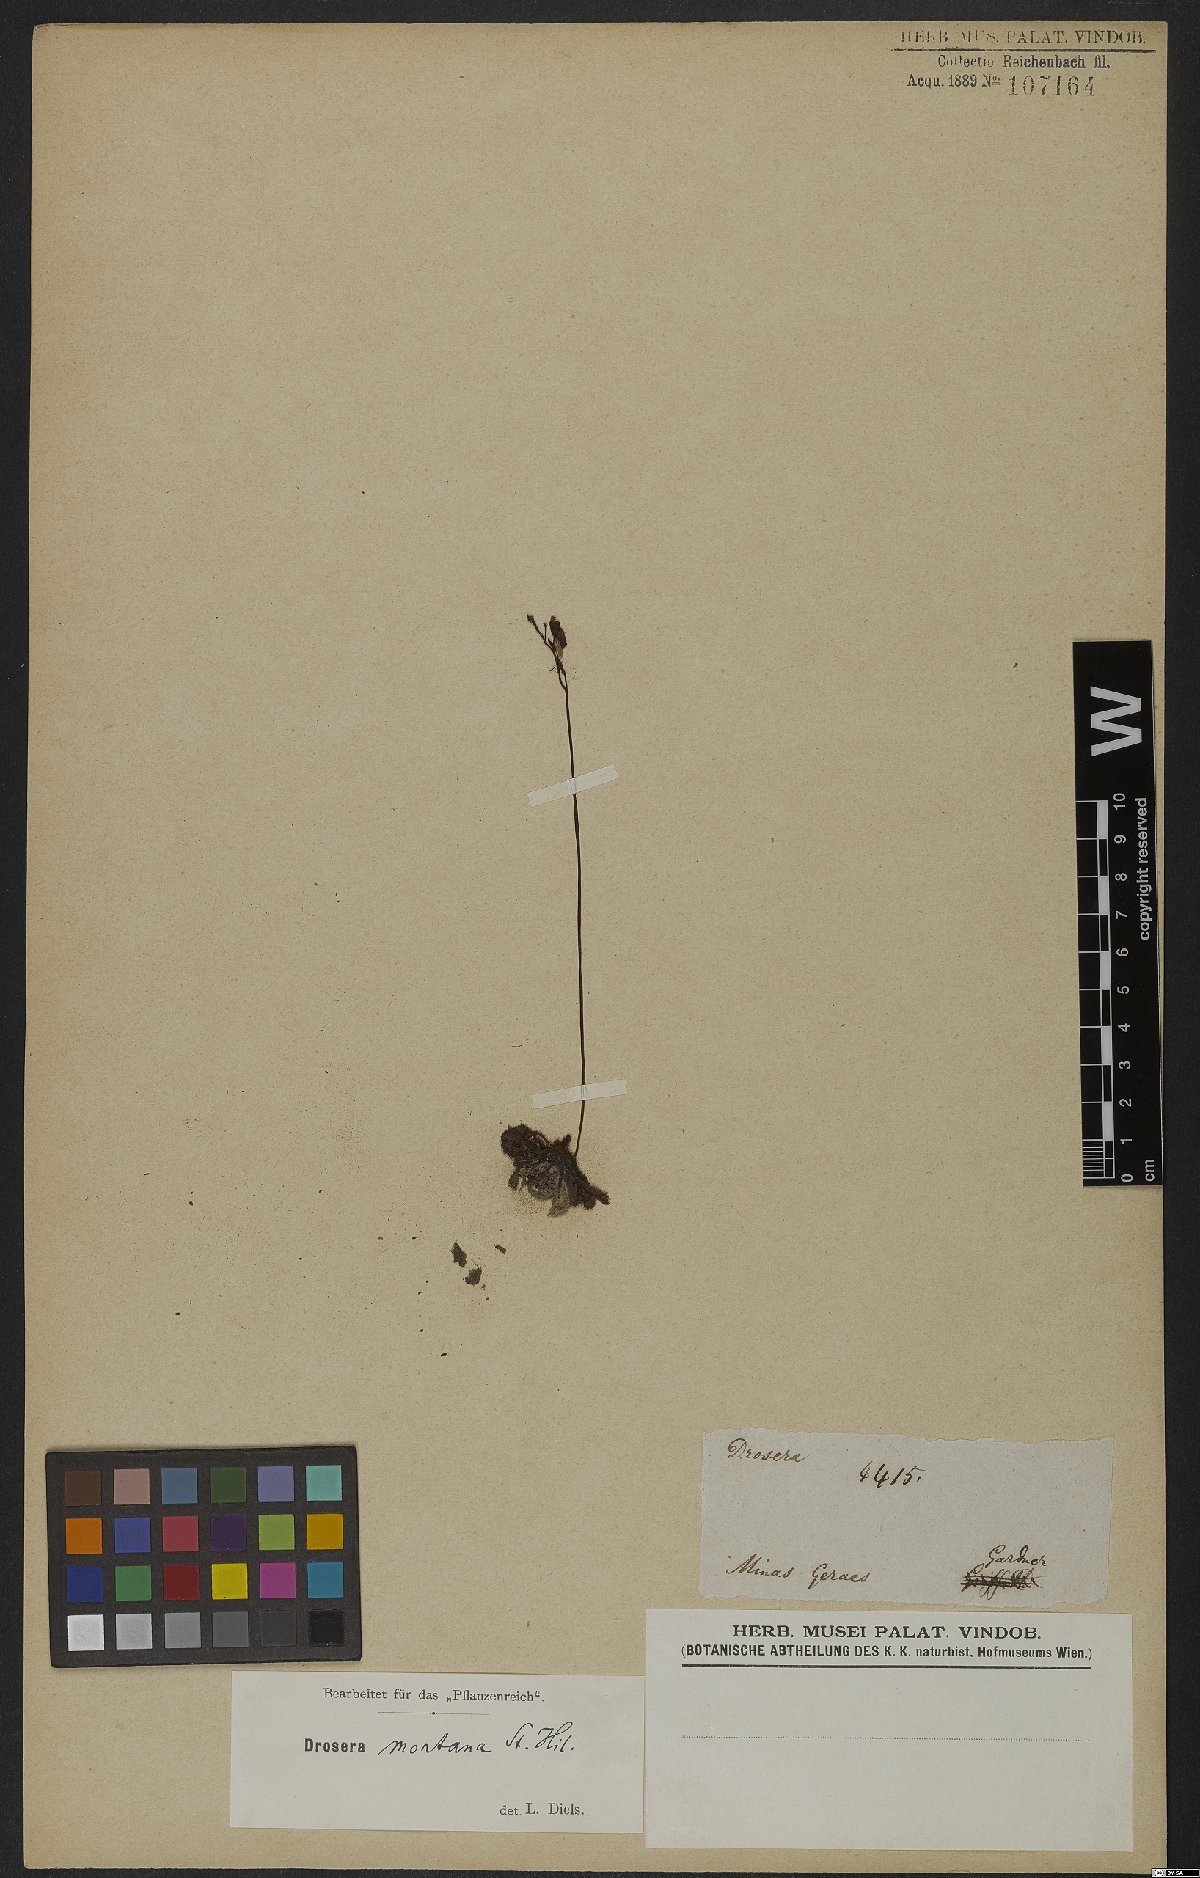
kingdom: Plantae
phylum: Tracheophyta
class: Magnoliopsida
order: Caryophyllales
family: Droseraceae
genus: Drosera
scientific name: Drosera communis
